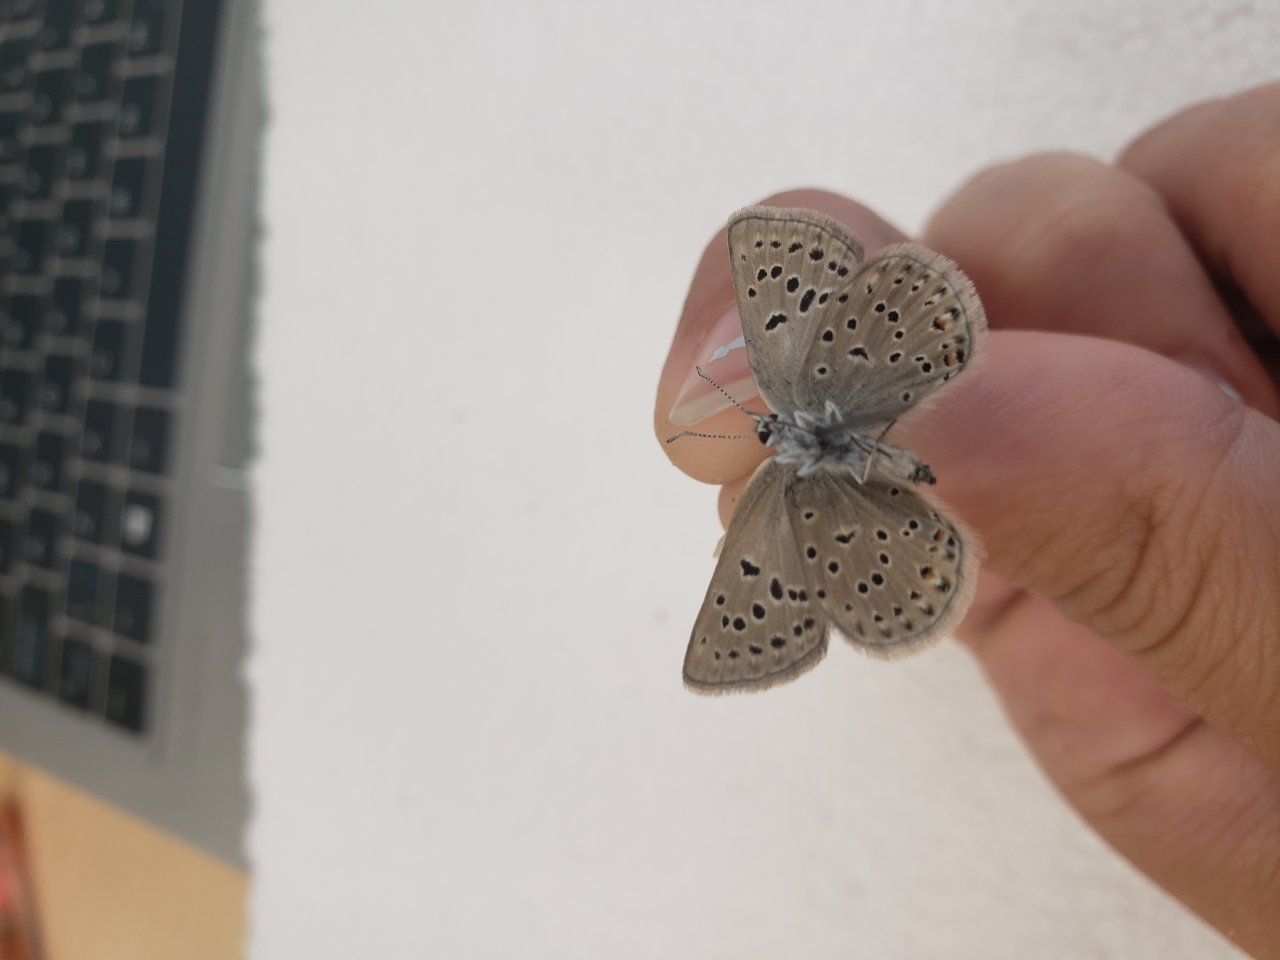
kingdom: Animalia
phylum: Arthropoda
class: Insecta
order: Lepidoptera
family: Lycaenidae
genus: Lycaeides
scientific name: Lycaeides idas
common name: Northern Blue
